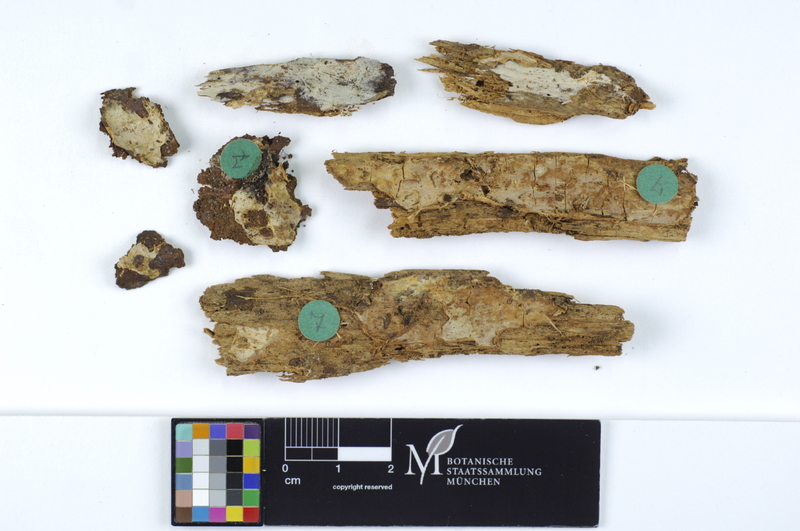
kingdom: Fungi
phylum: Basidiomycota
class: Agaricomycetes
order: Amylocorticiales
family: Amylocorticiaceae
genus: Ceraceomyces
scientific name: Ceraceomyces tessulatus
